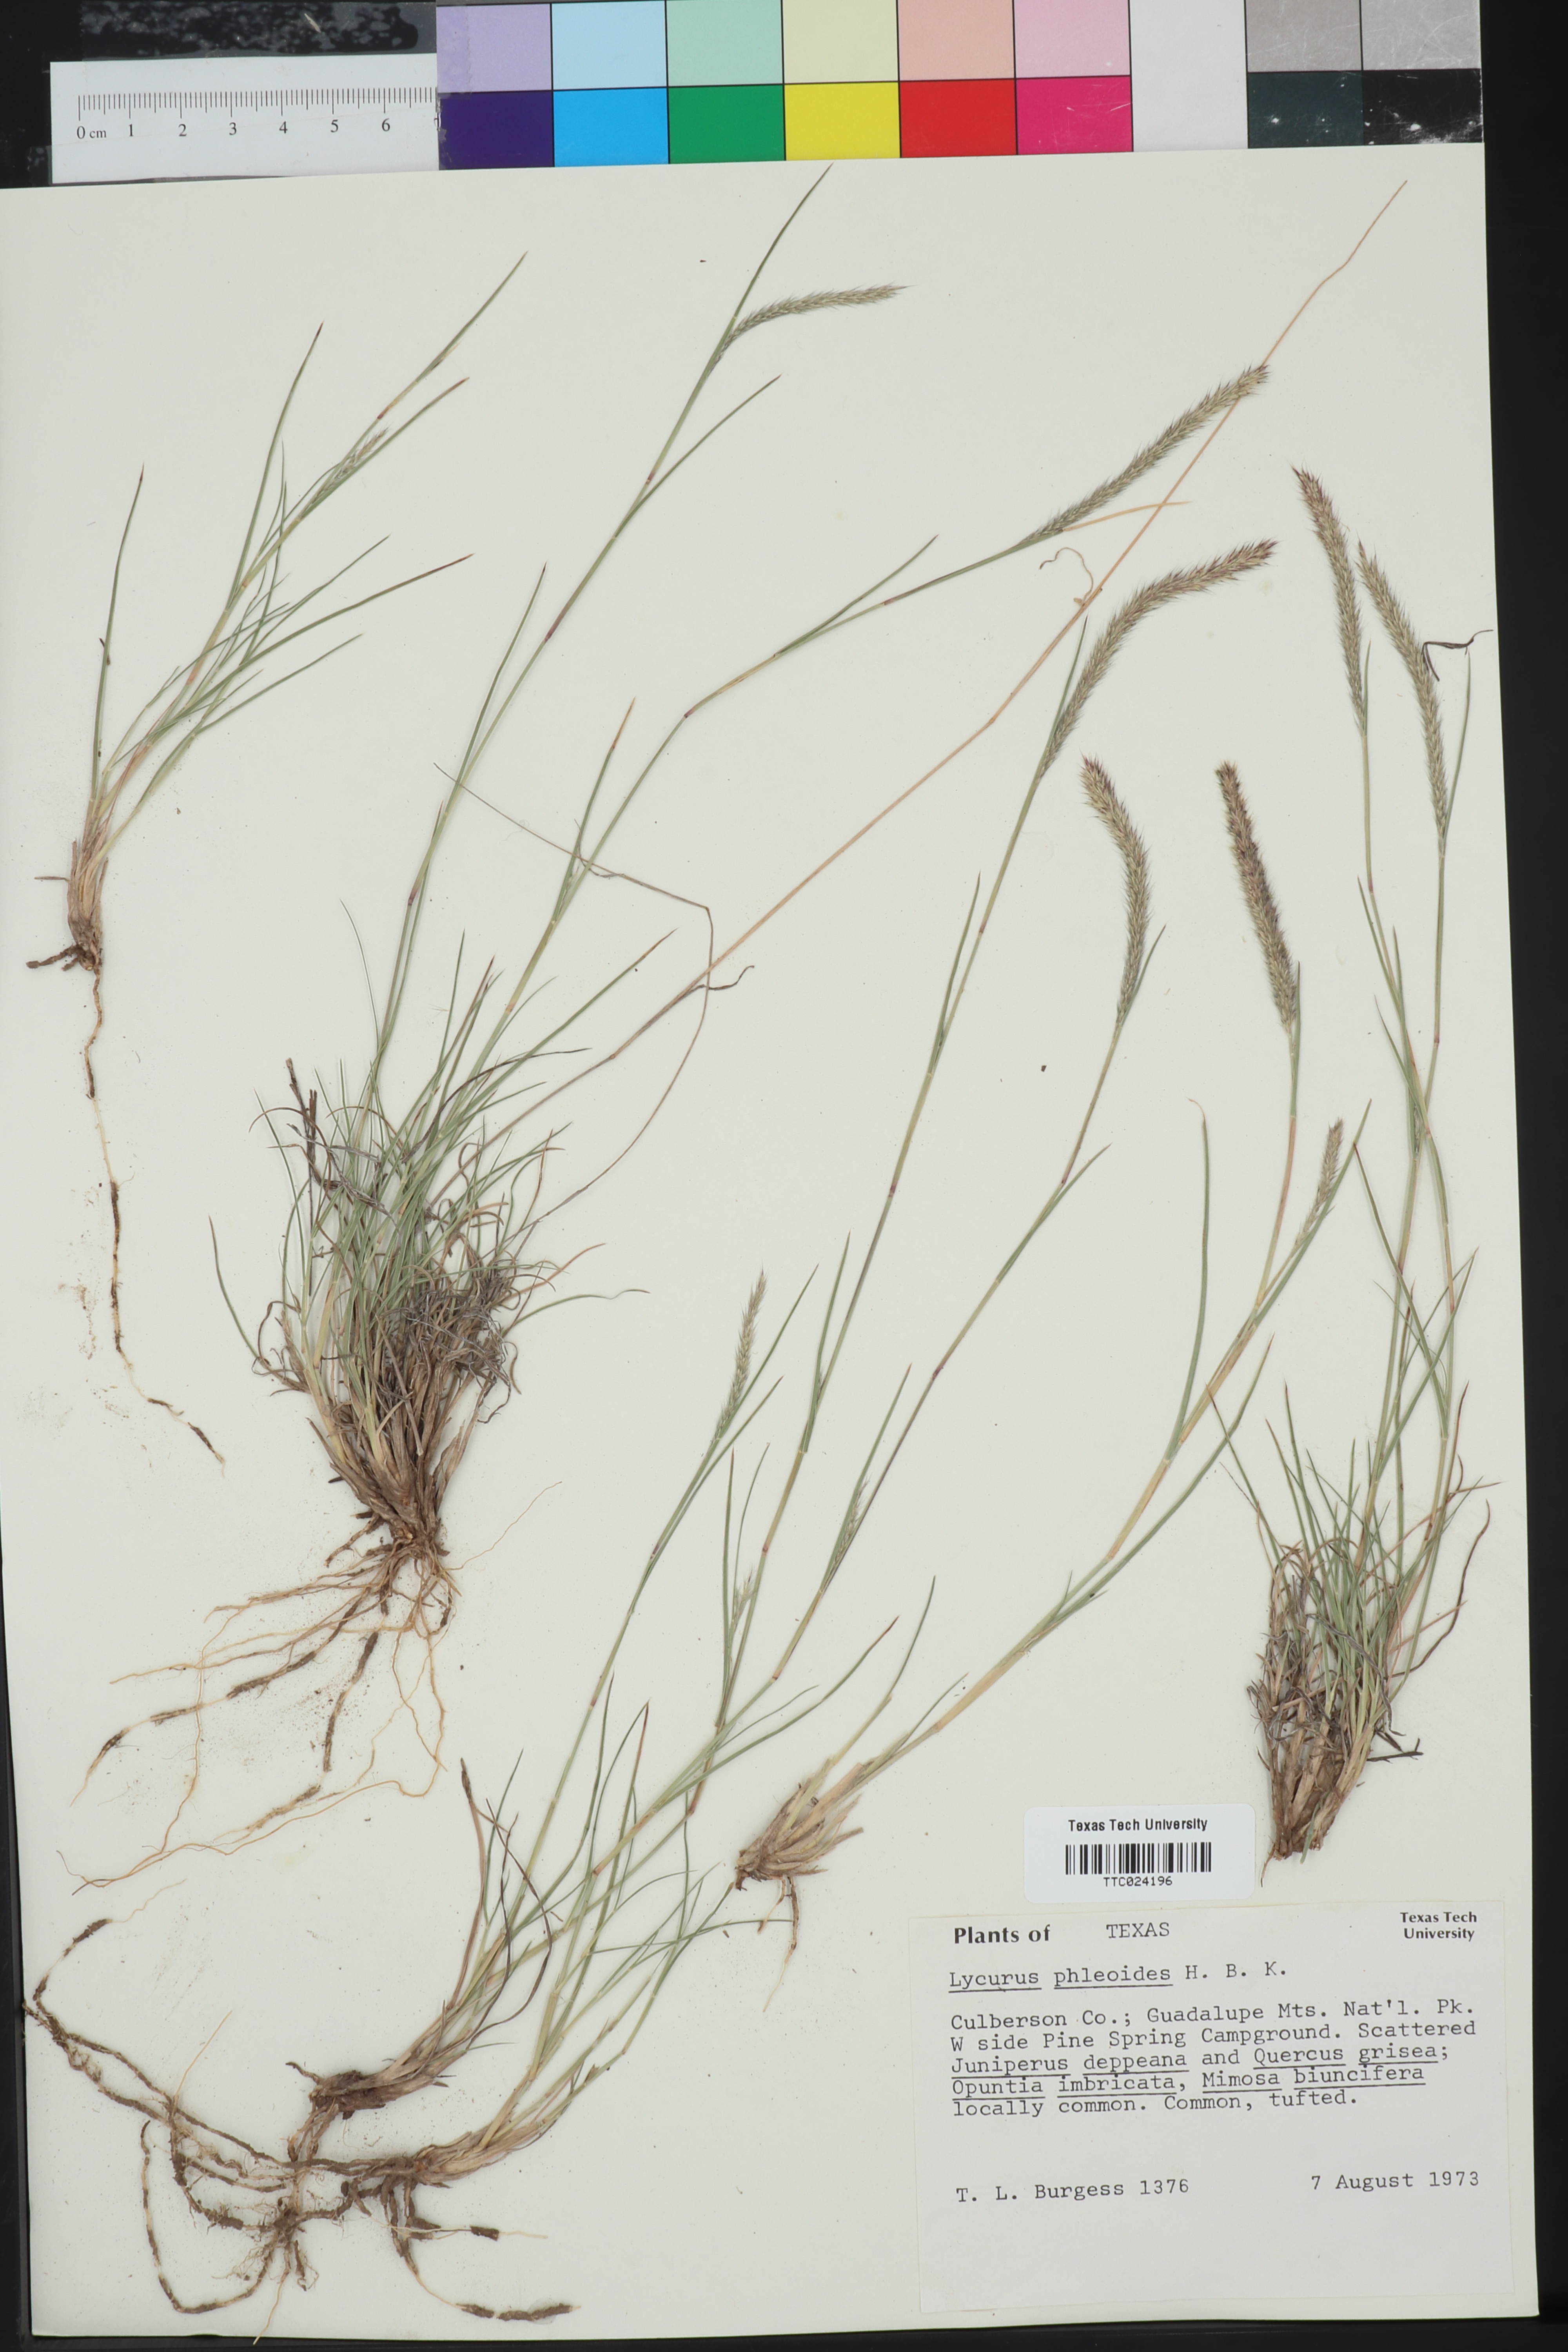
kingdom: Plantae
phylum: Tracheophyta
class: Liliopsida
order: Poales
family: Poaceae
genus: Muhlenbergia
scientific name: Muhlenbergia phleoides
